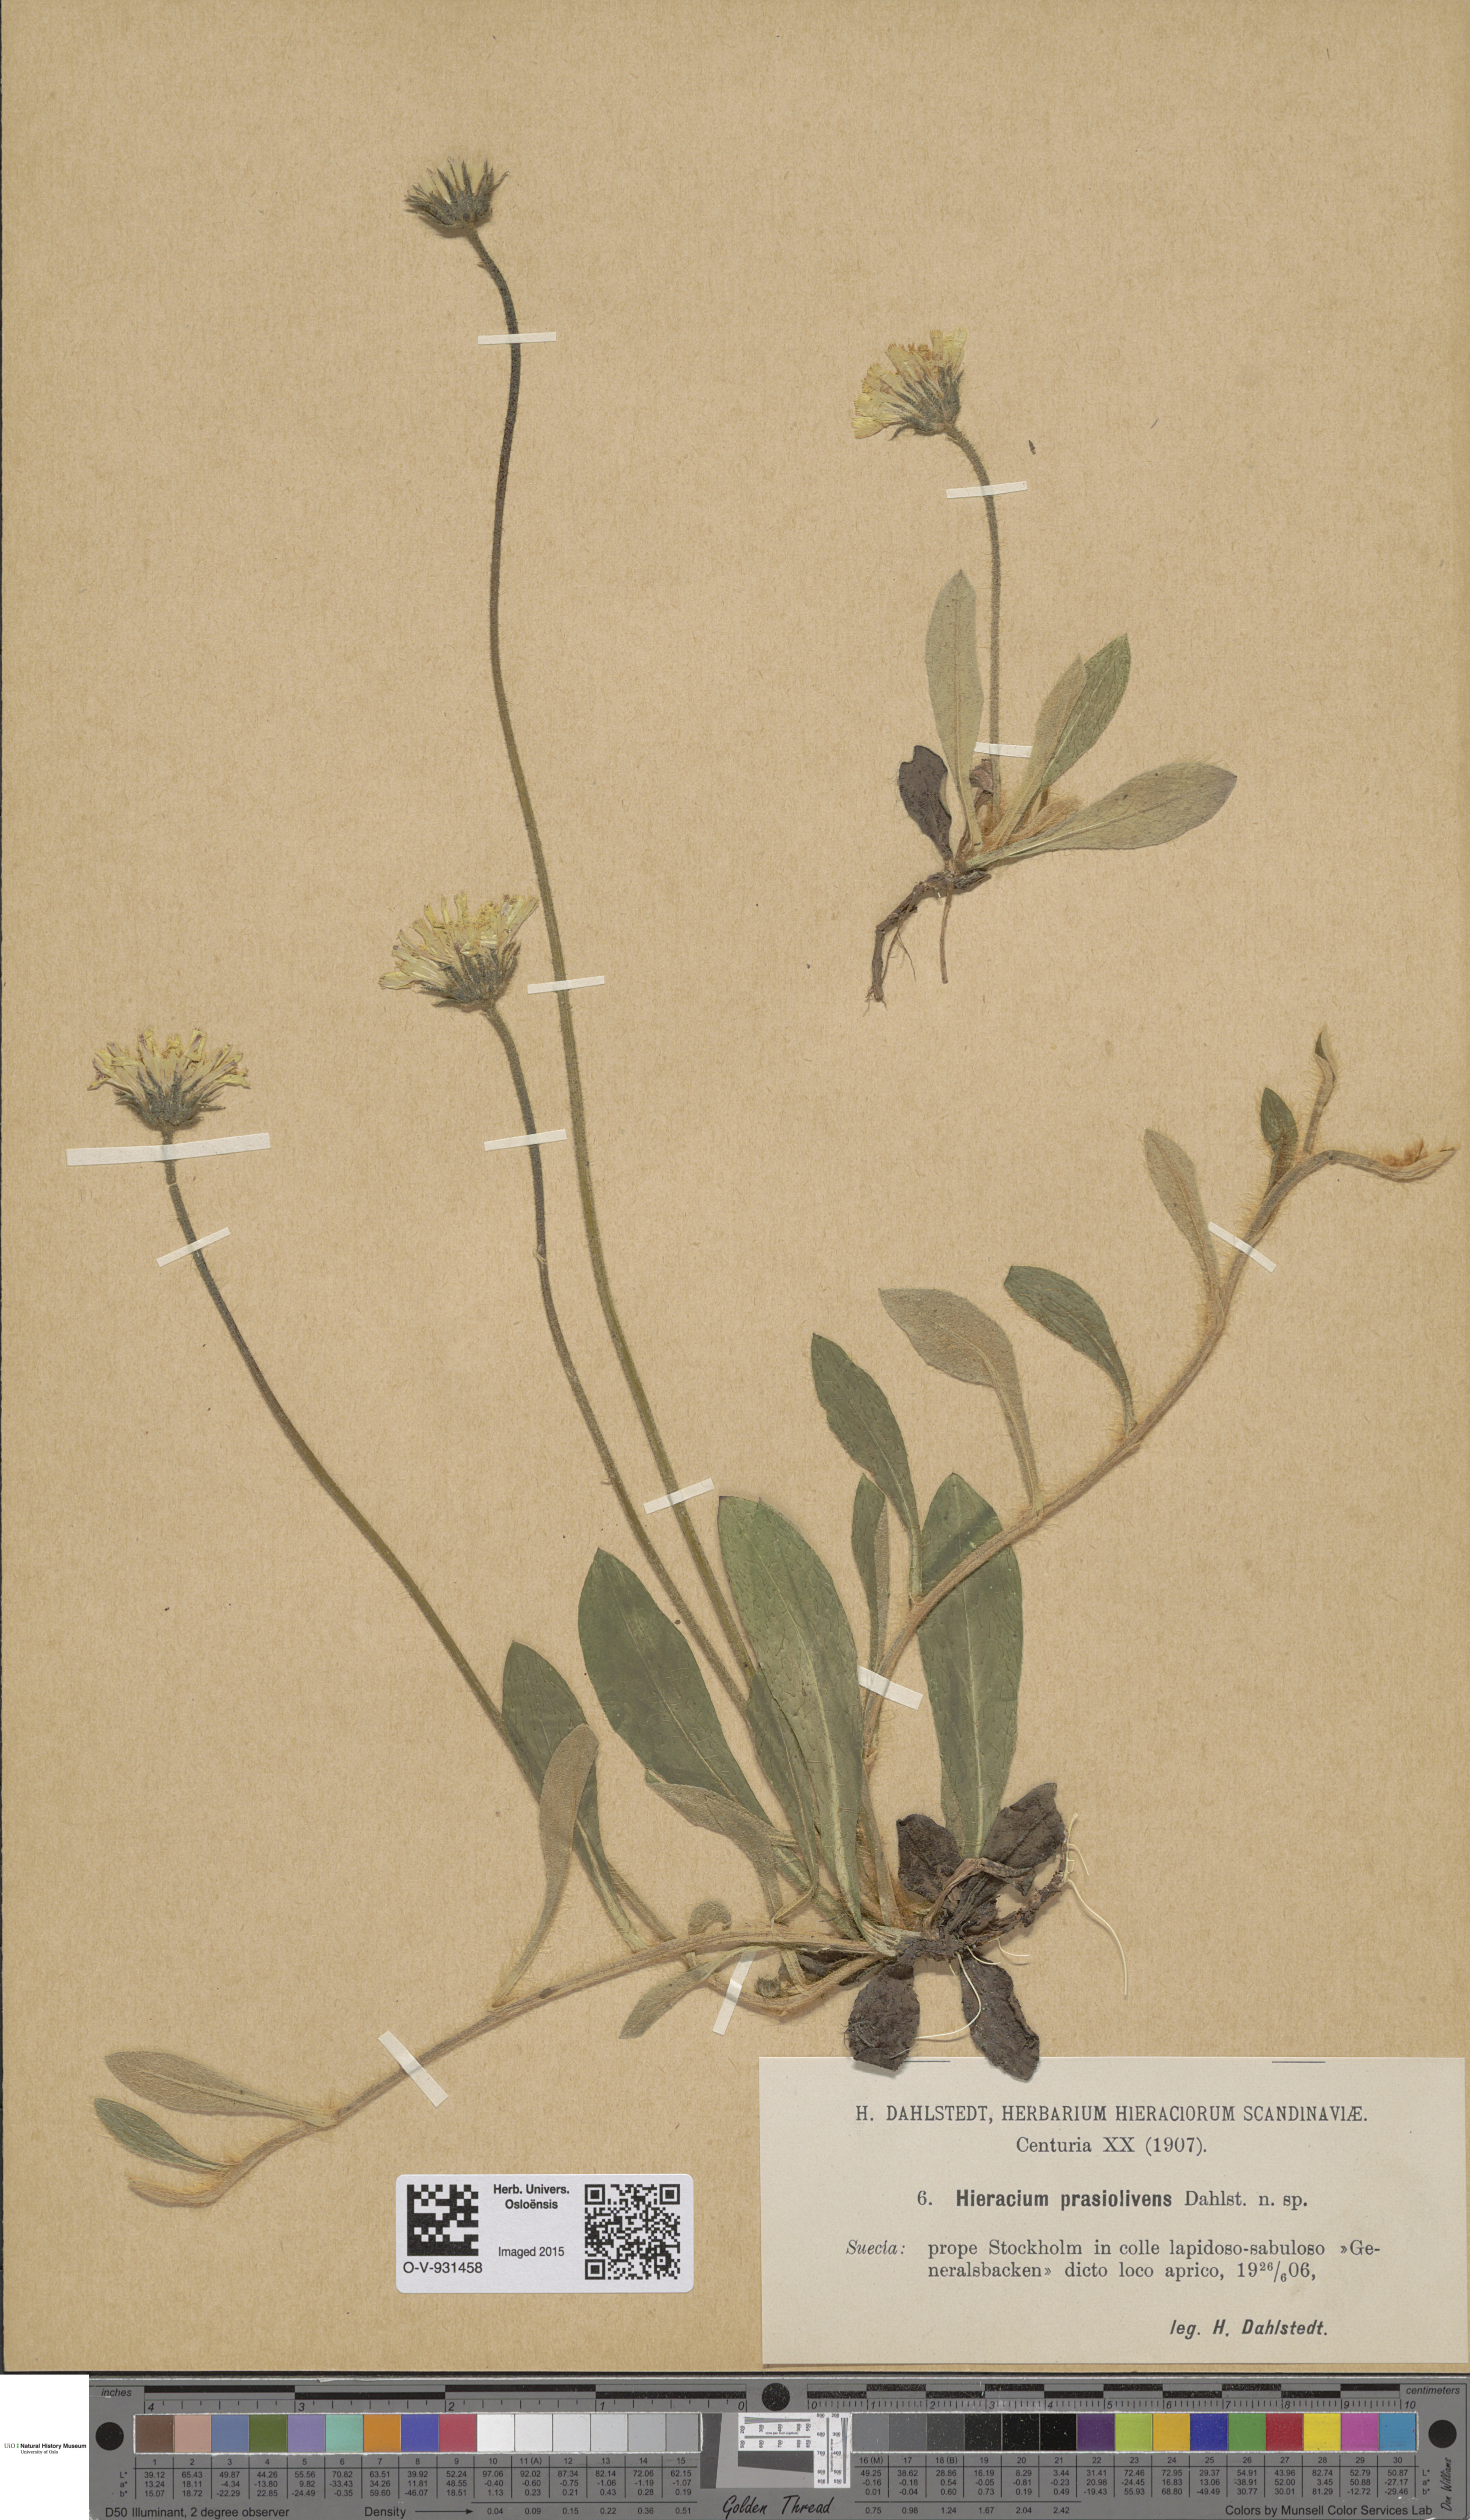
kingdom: Plantae
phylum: Tracheophyta
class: Magnoliopsida
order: Asterales
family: Asteraceae
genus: Hieracium
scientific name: Hieracium
